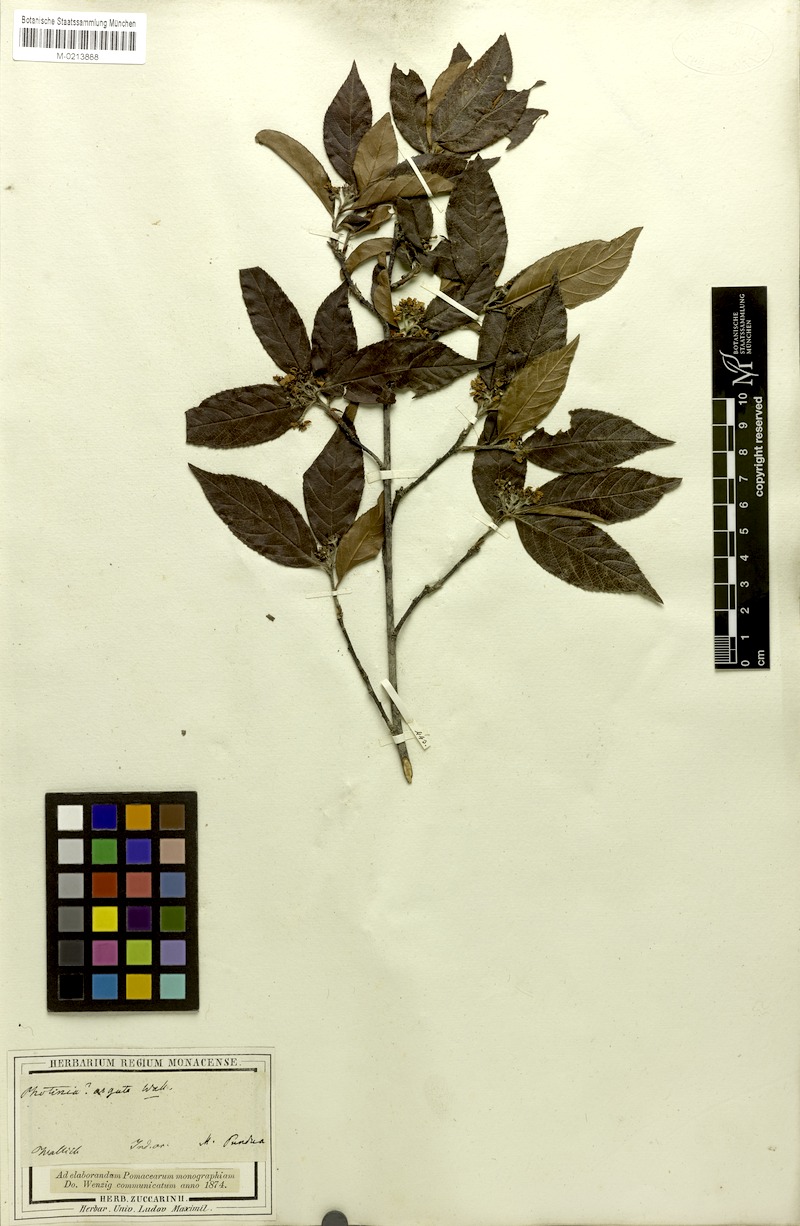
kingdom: Plantae
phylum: Tracheophyta
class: Magnoliopsida
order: Rosales
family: Rosaceae
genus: Pourthiaea
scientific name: Pourthiaea arguta
